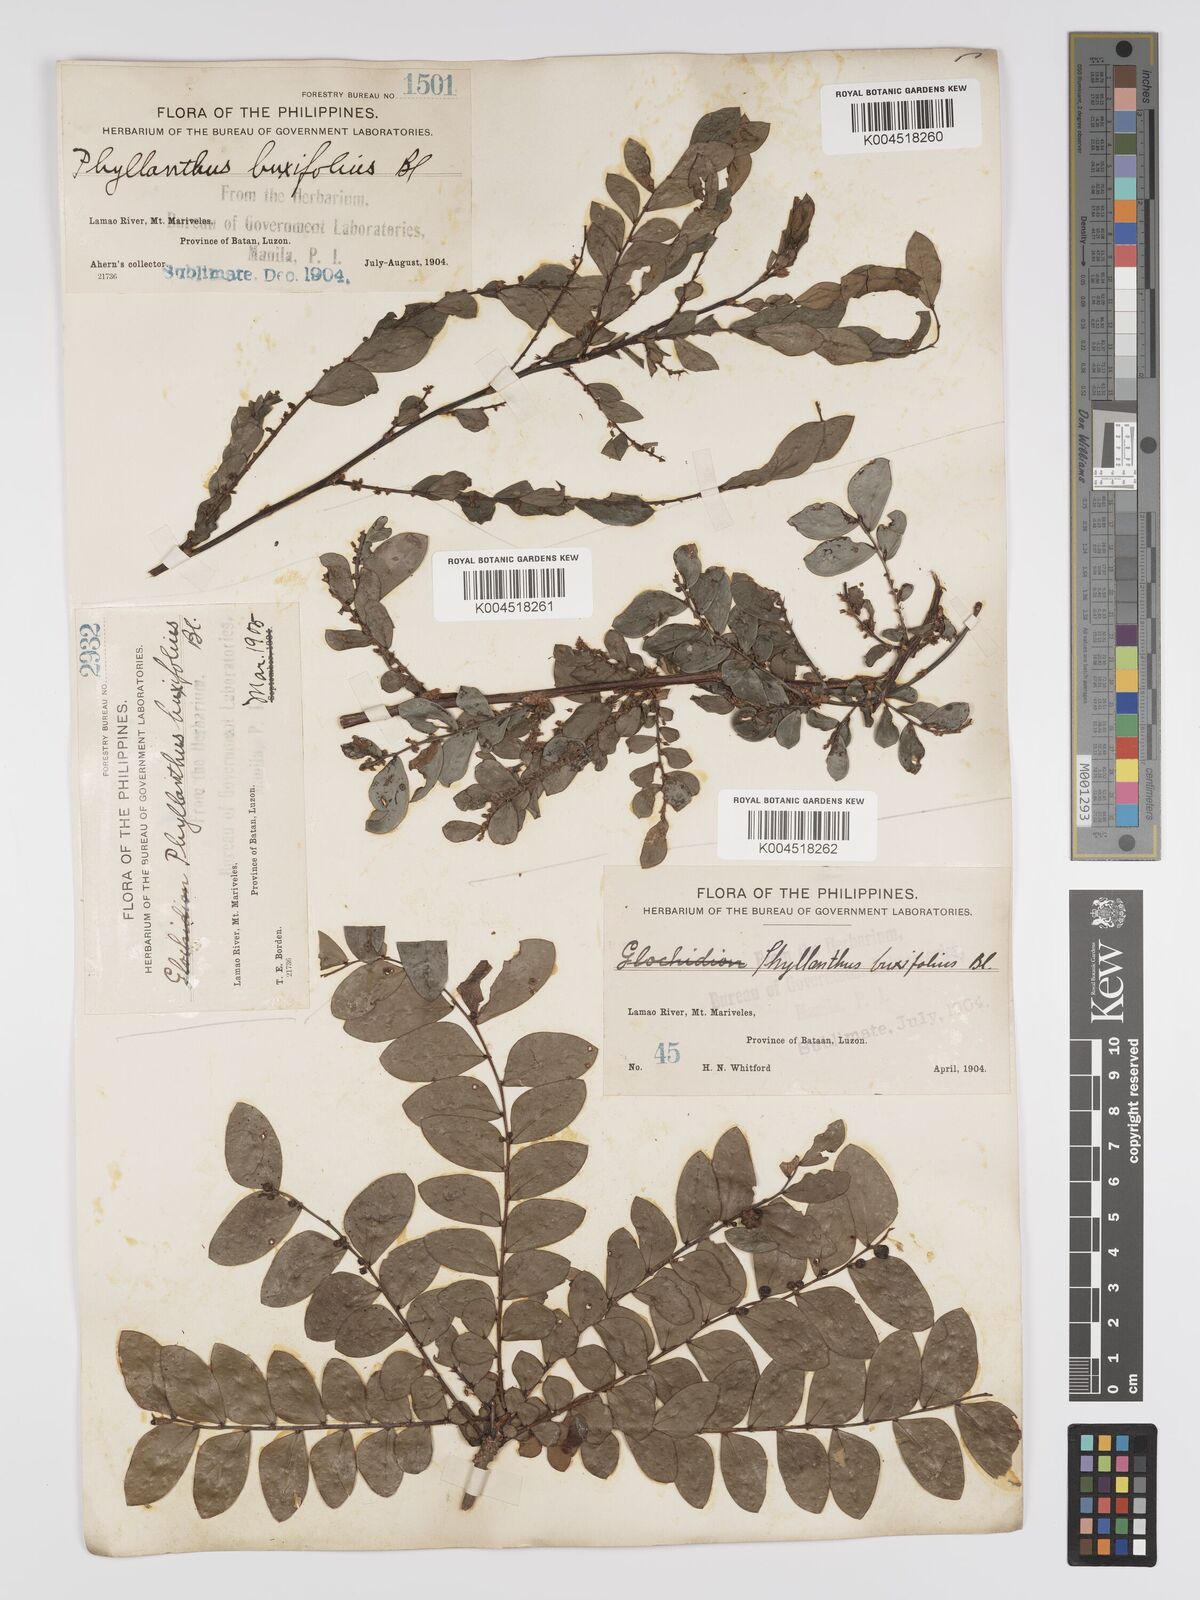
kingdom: Plantae
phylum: Tracheophyta
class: Magnoliopsida
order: Malpighiales
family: Phyllanthaceae
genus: Phyllanthus
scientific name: Phyllanthus buxifolius
